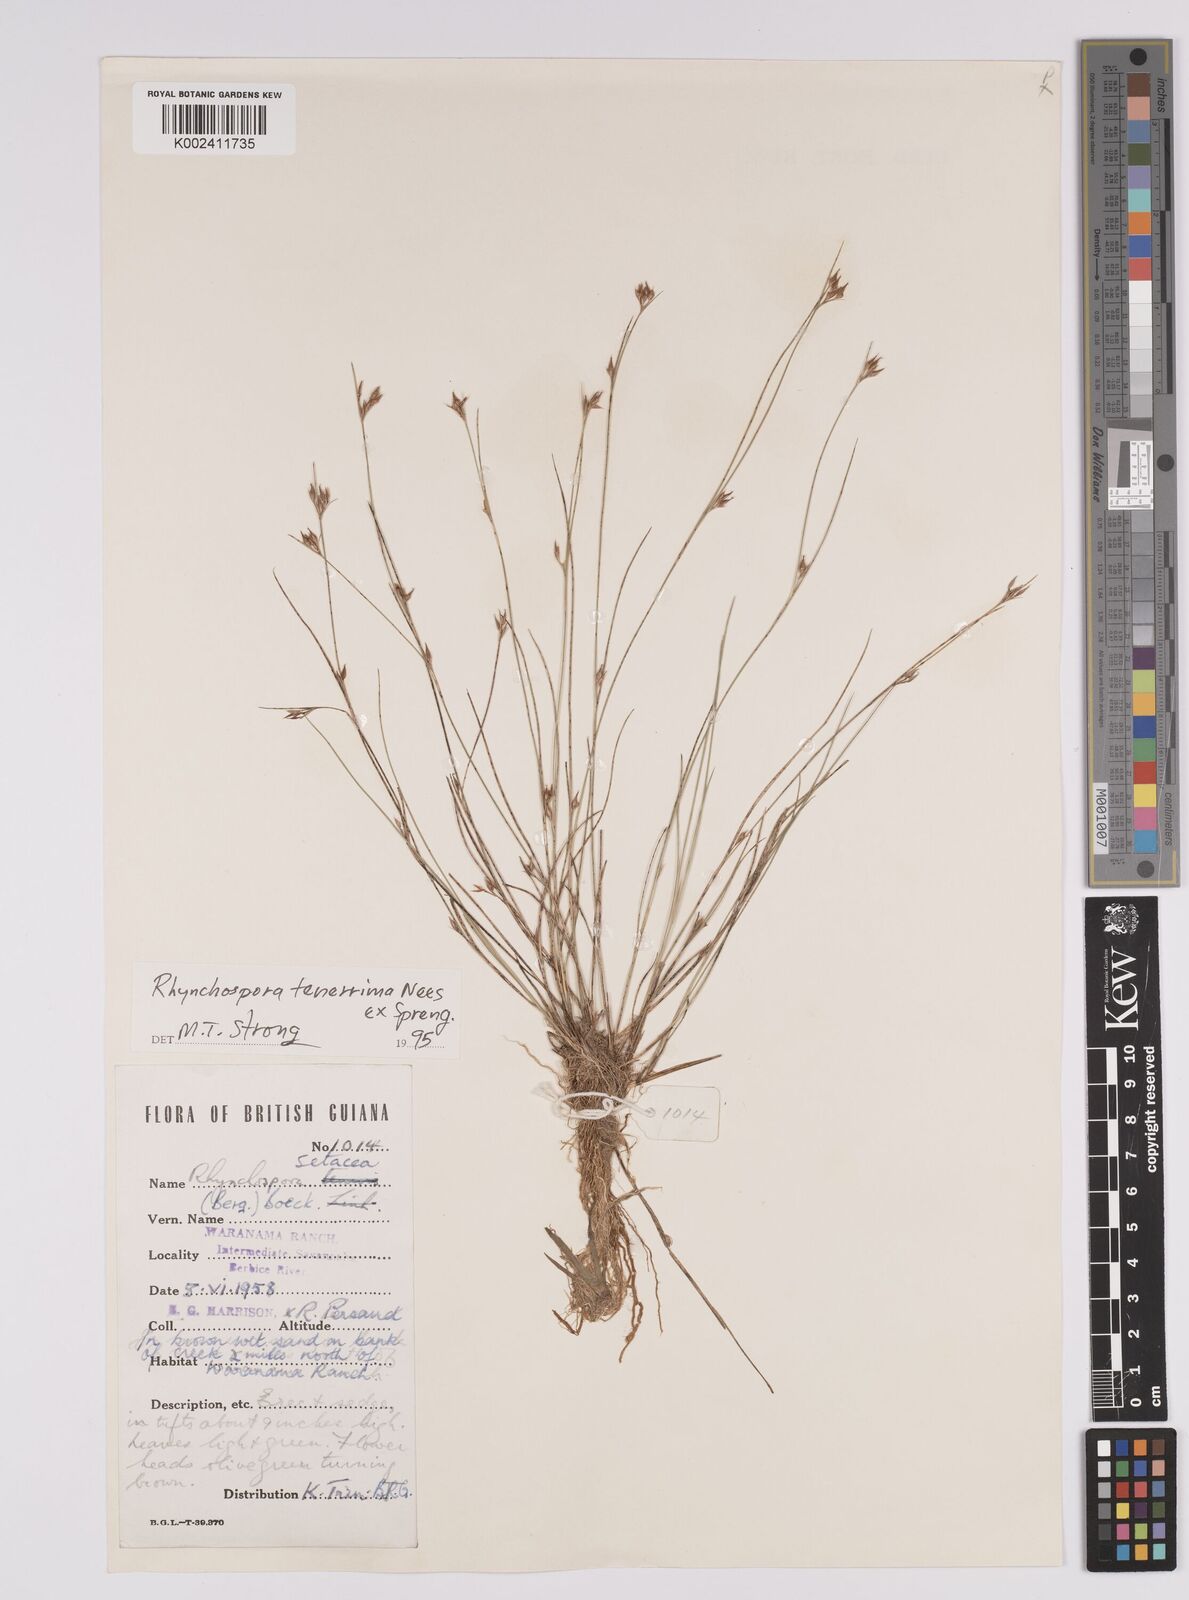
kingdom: Plantae
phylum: Tracheophyta
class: Liliopsida
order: Poales
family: Cyperaceae
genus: Rhynchospora
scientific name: Rhynchospora tenerrima
